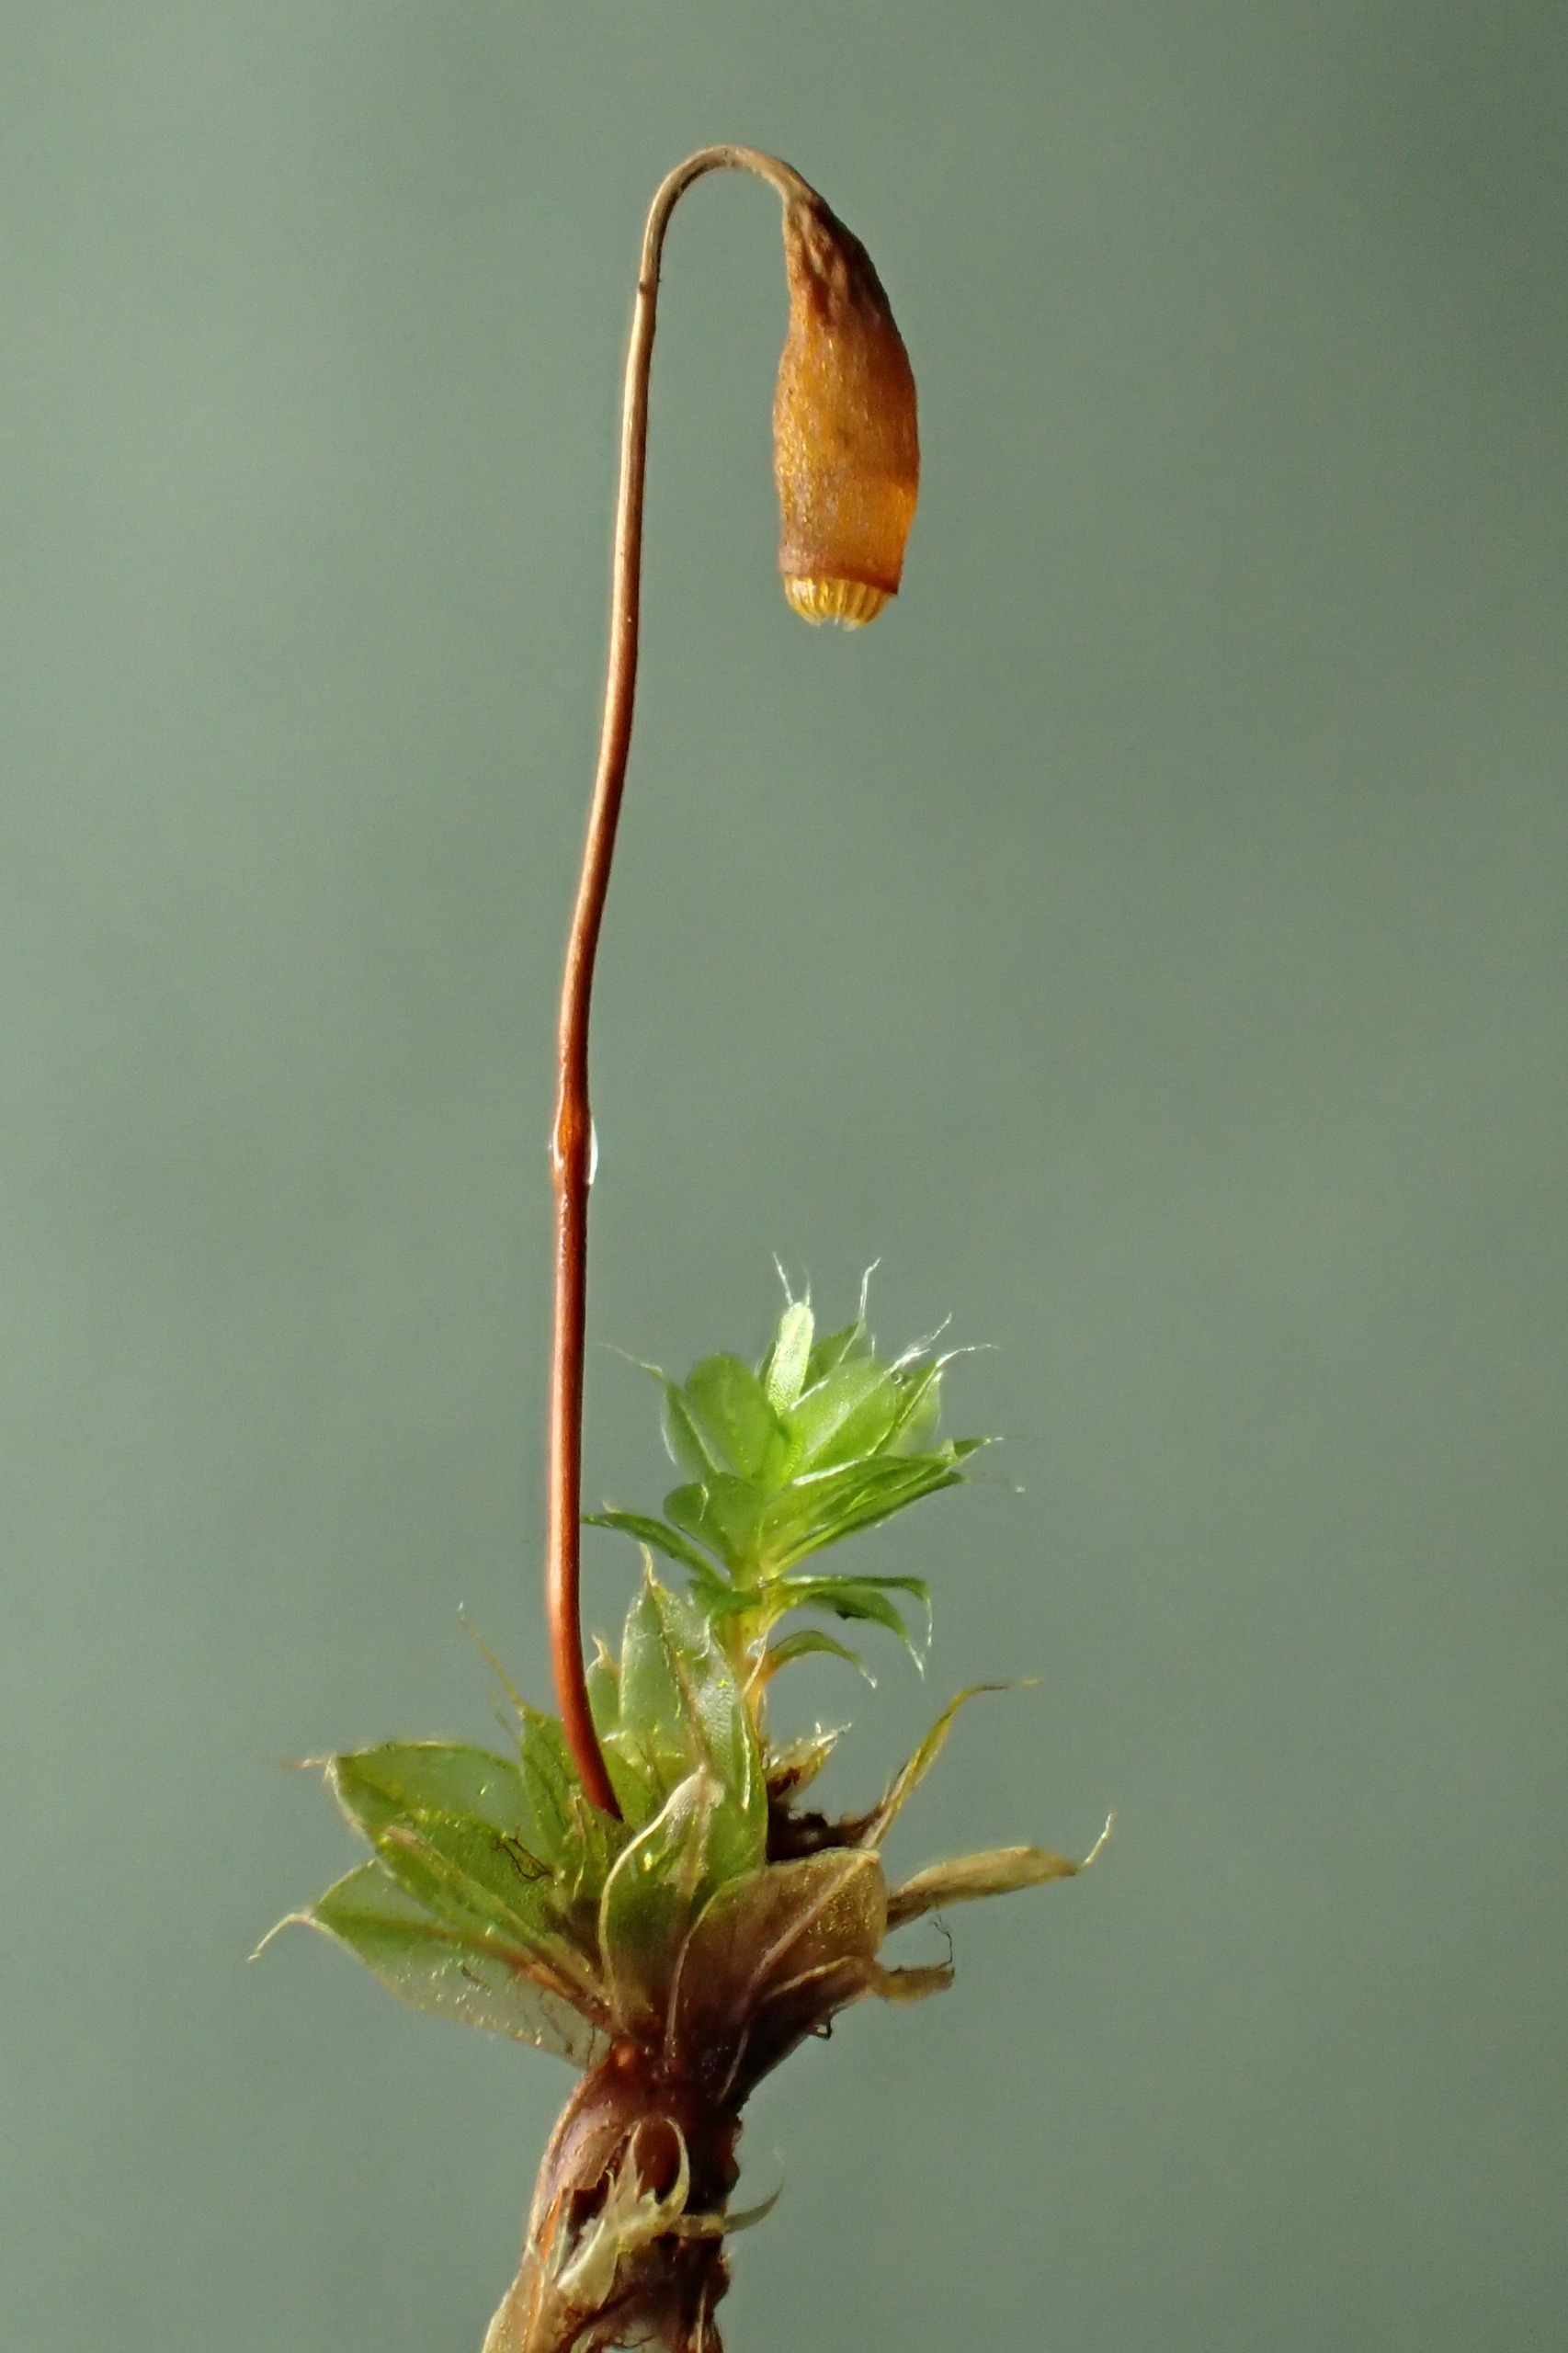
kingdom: Plantae
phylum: Bryophyta
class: Bryopsida
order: Bryales
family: Bryaceae
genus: Rosulabryum
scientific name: Rosulabryum moravicum
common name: Bark-bryum
